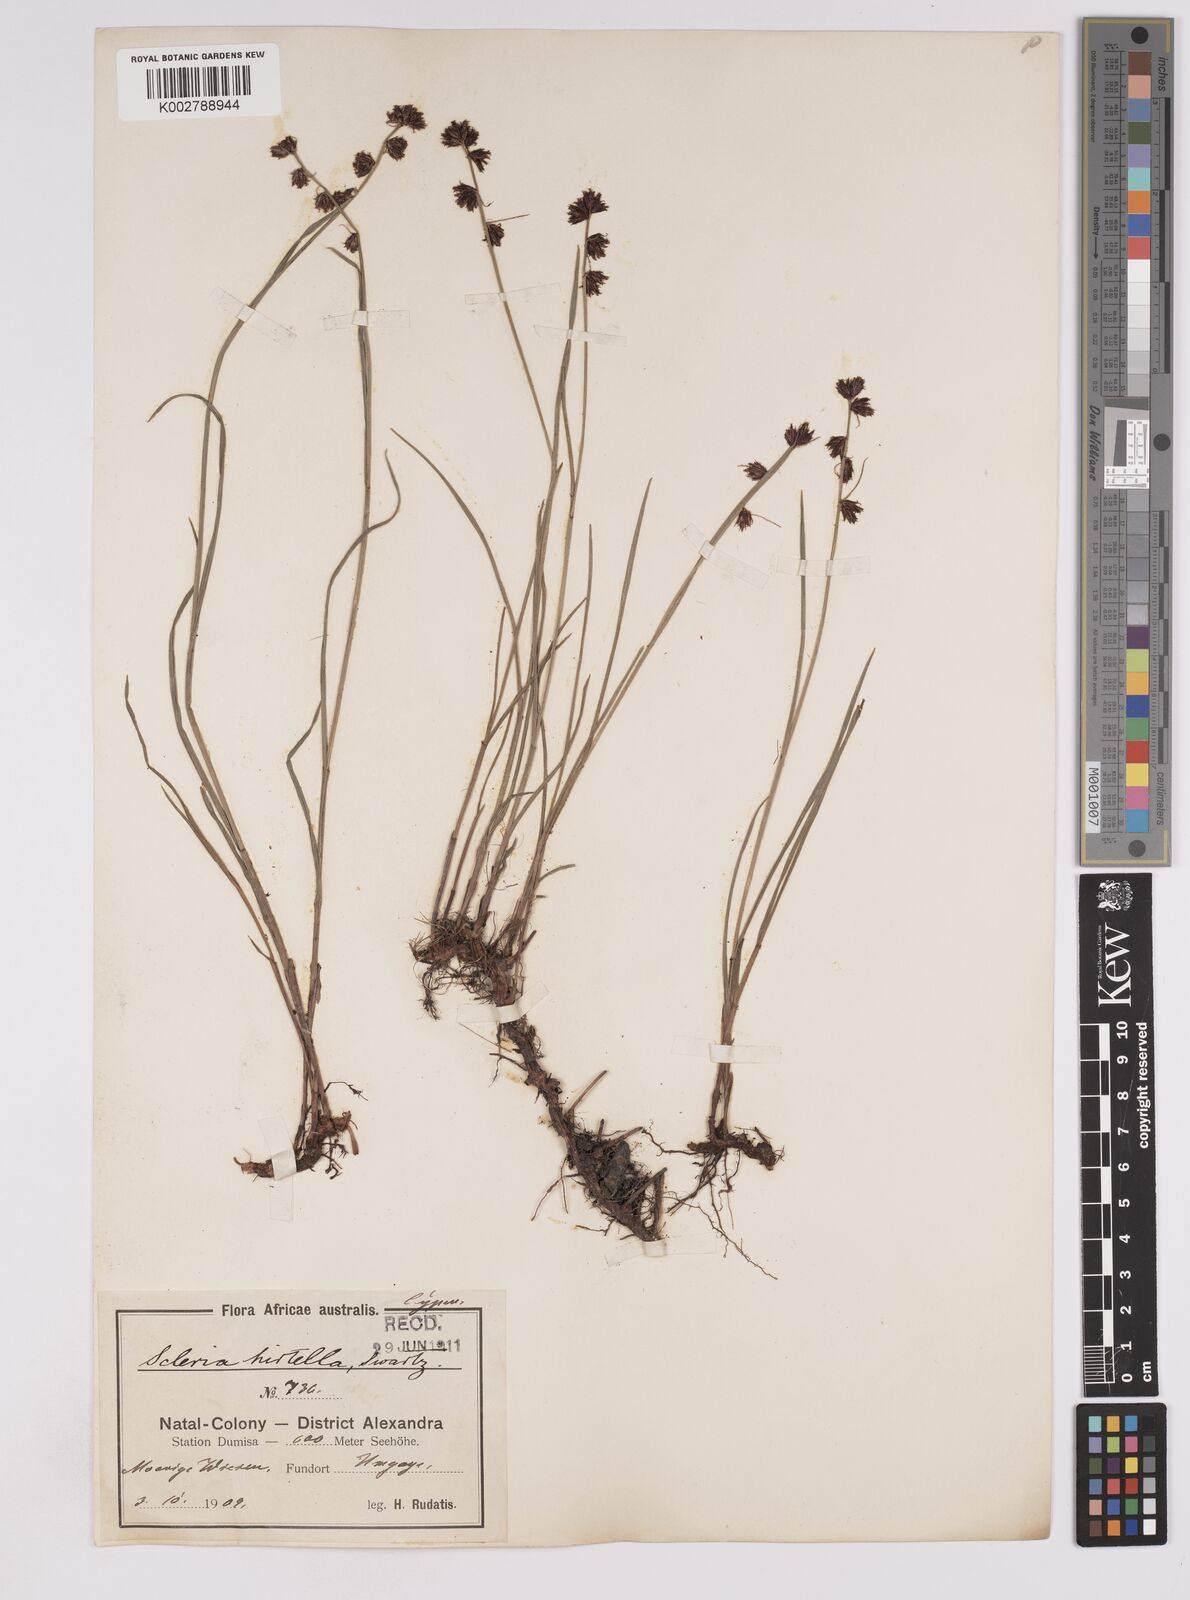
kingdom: Plantae
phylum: Tracheophyta
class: Liliopsida
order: Poales
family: Cyperaceae
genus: Scleria
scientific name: Scleria hirtella
